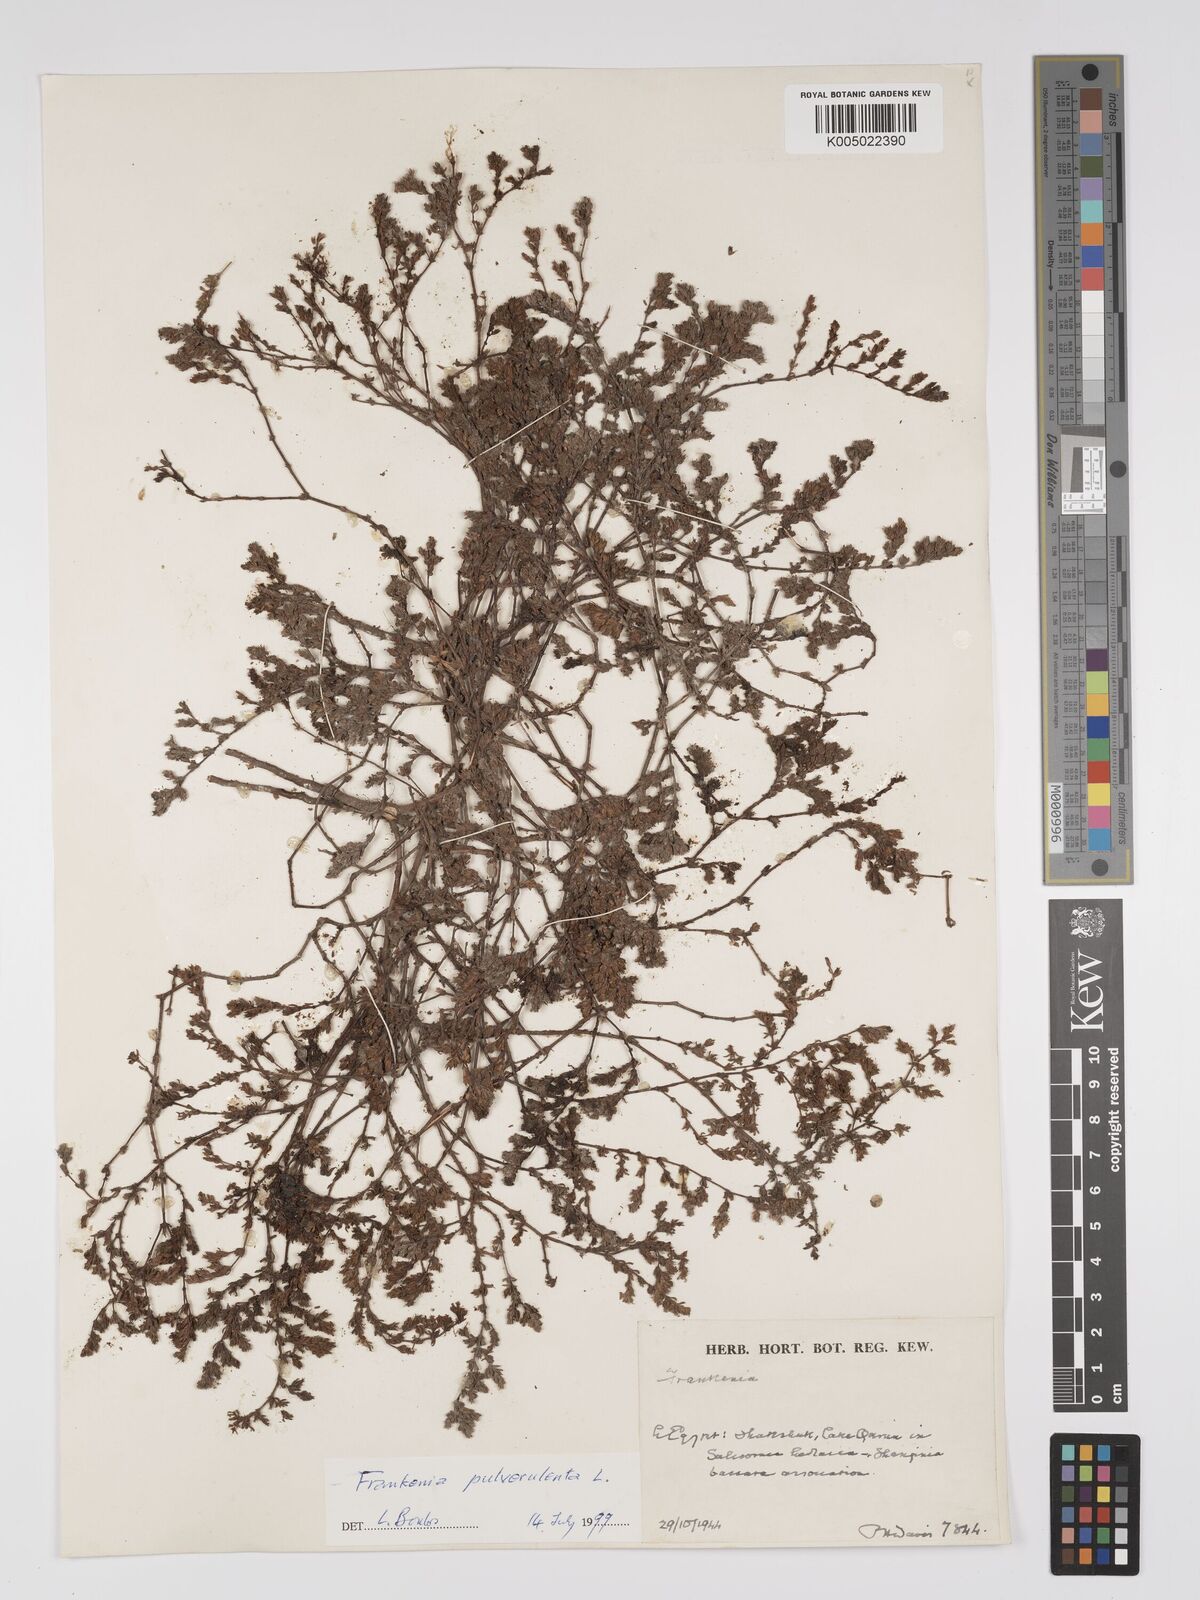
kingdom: Plantae
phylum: Tracheophyta
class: Magnoliopsida
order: Caryophyllales
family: Frankeniaceae
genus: Frankenia
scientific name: Frankenia pulverulenta
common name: European seaheath
